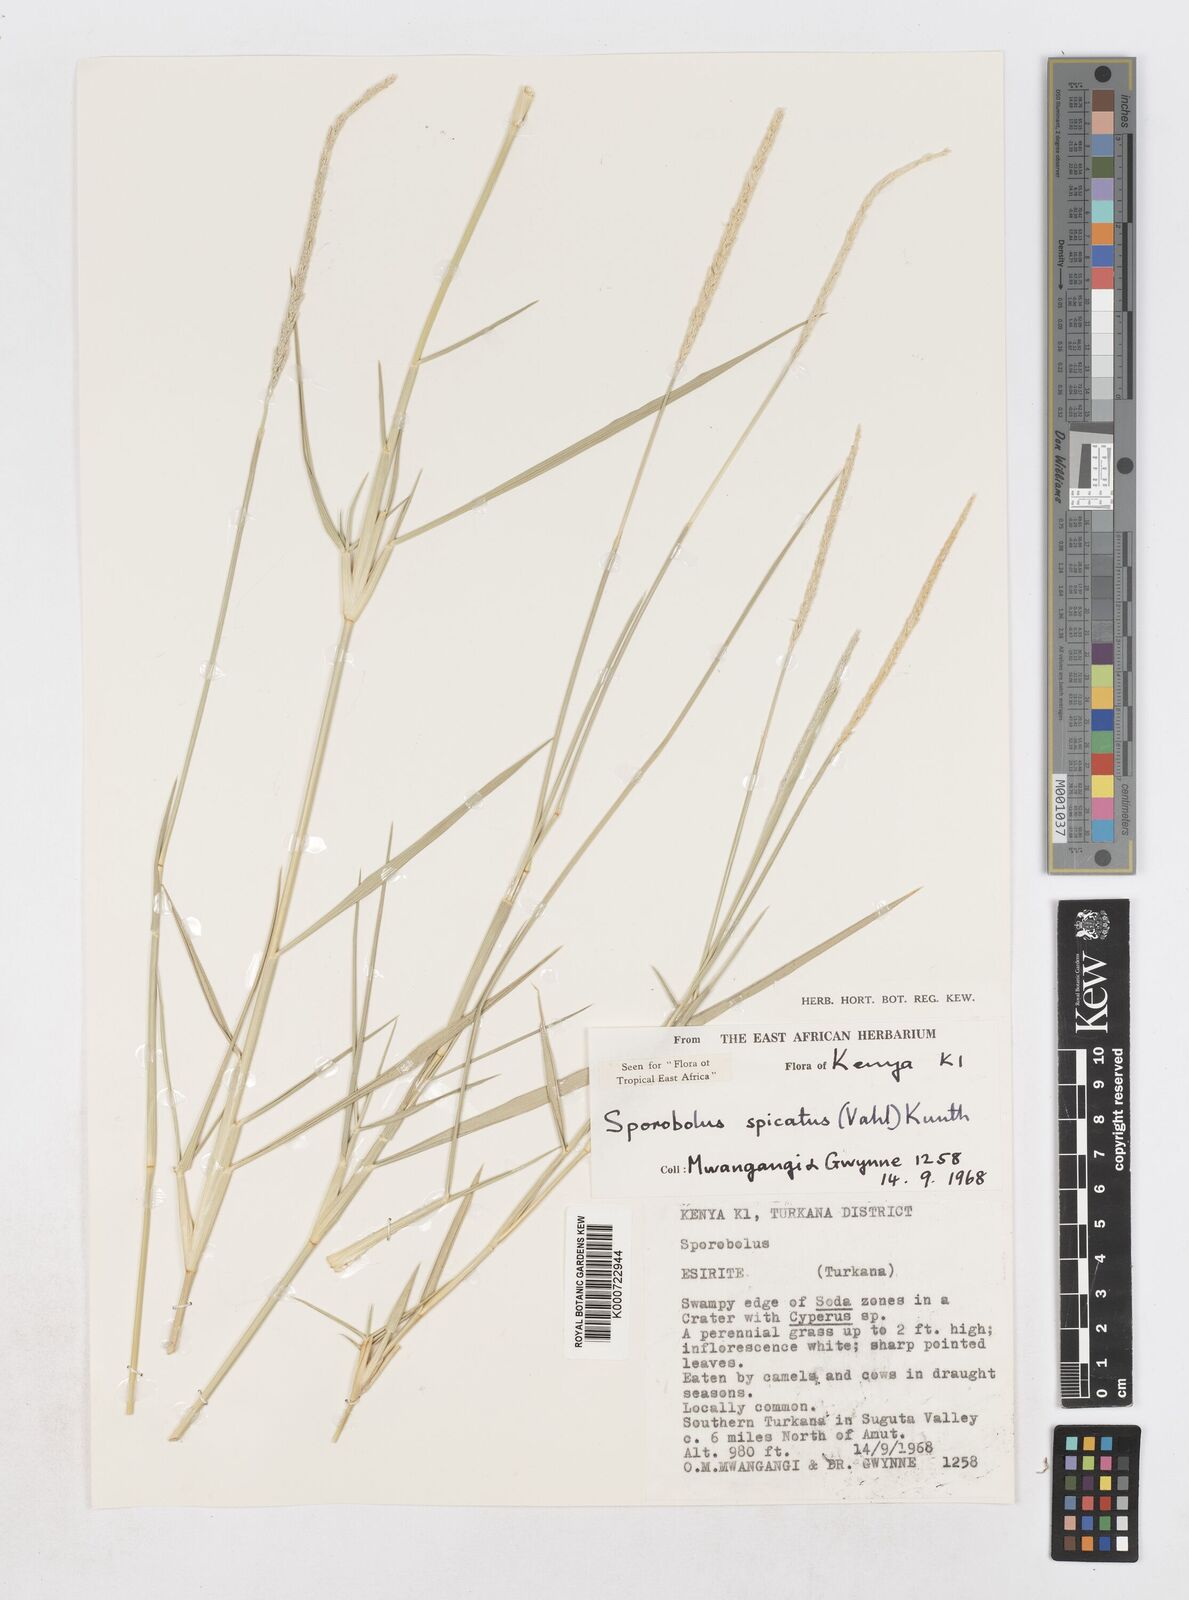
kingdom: Plantae
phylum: Tracheophyta
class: Liliopsida
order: Poales
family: Poaceae
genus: Sporobolus
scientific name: Sporobolus spicatus
